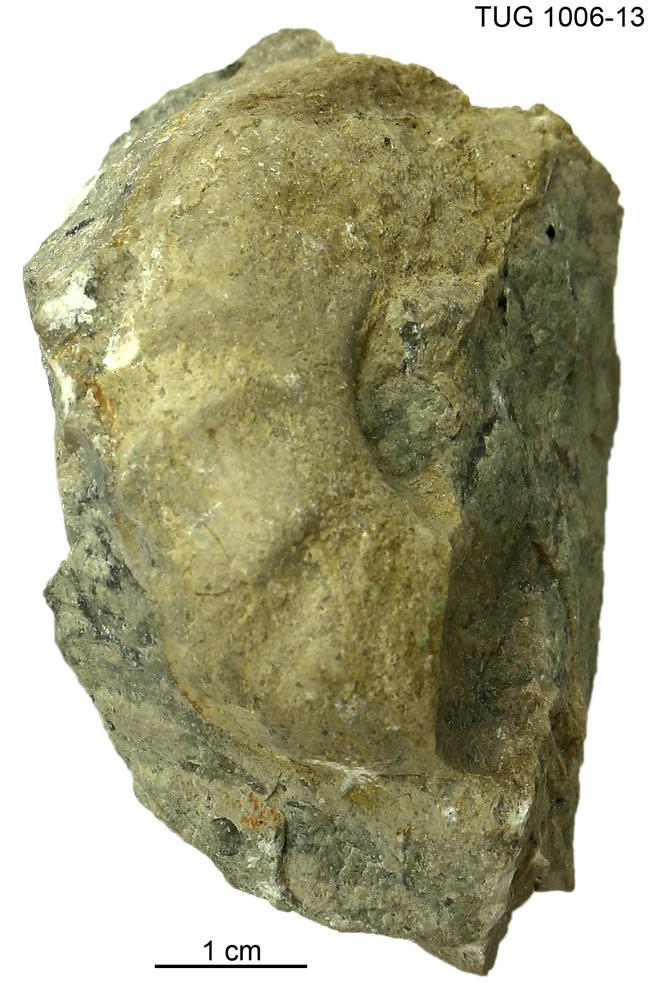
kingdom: Animalia
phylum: Mollusca
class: Cephalopoda
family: Trocholitidae
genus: Discoceras
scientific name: Discoceras antiquissimus
